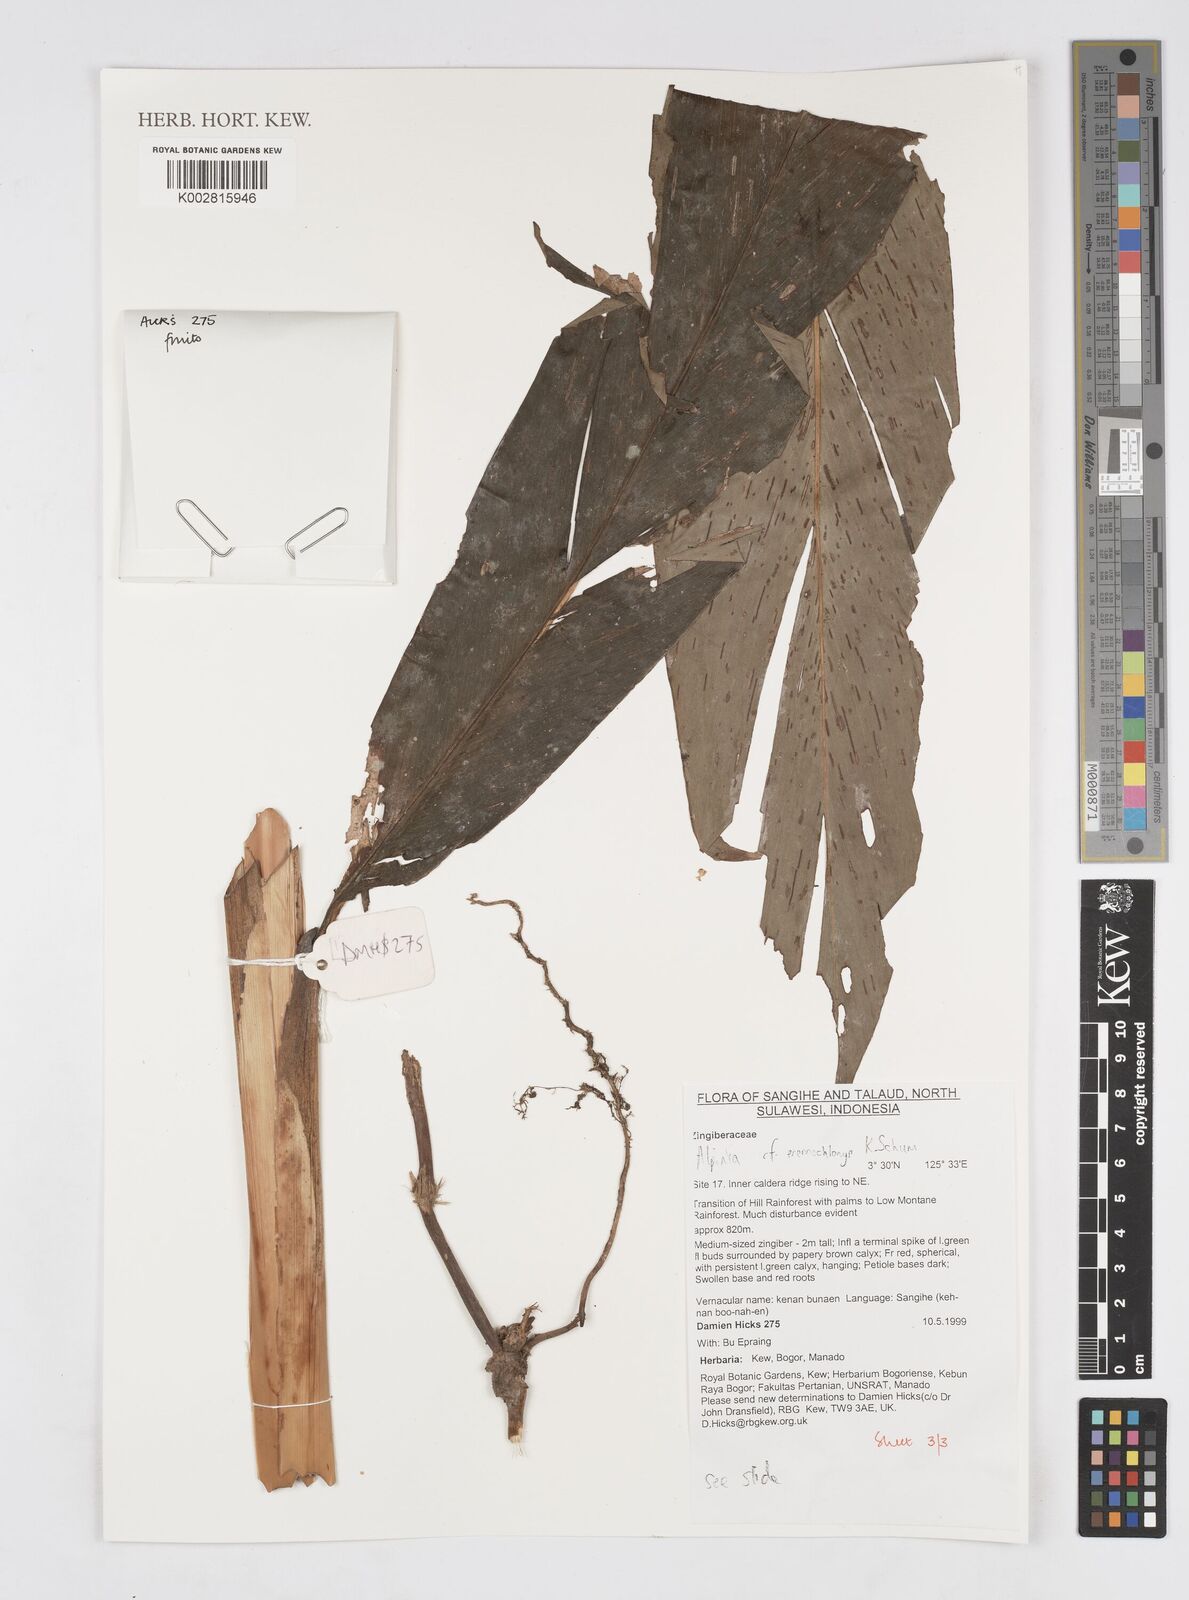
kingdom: Plantae
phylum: Tracheophyta
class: Liliopsida
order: Zingiberales
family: Zingiberaceae
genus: Alpinia
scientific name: Alpinia eremochlamys
